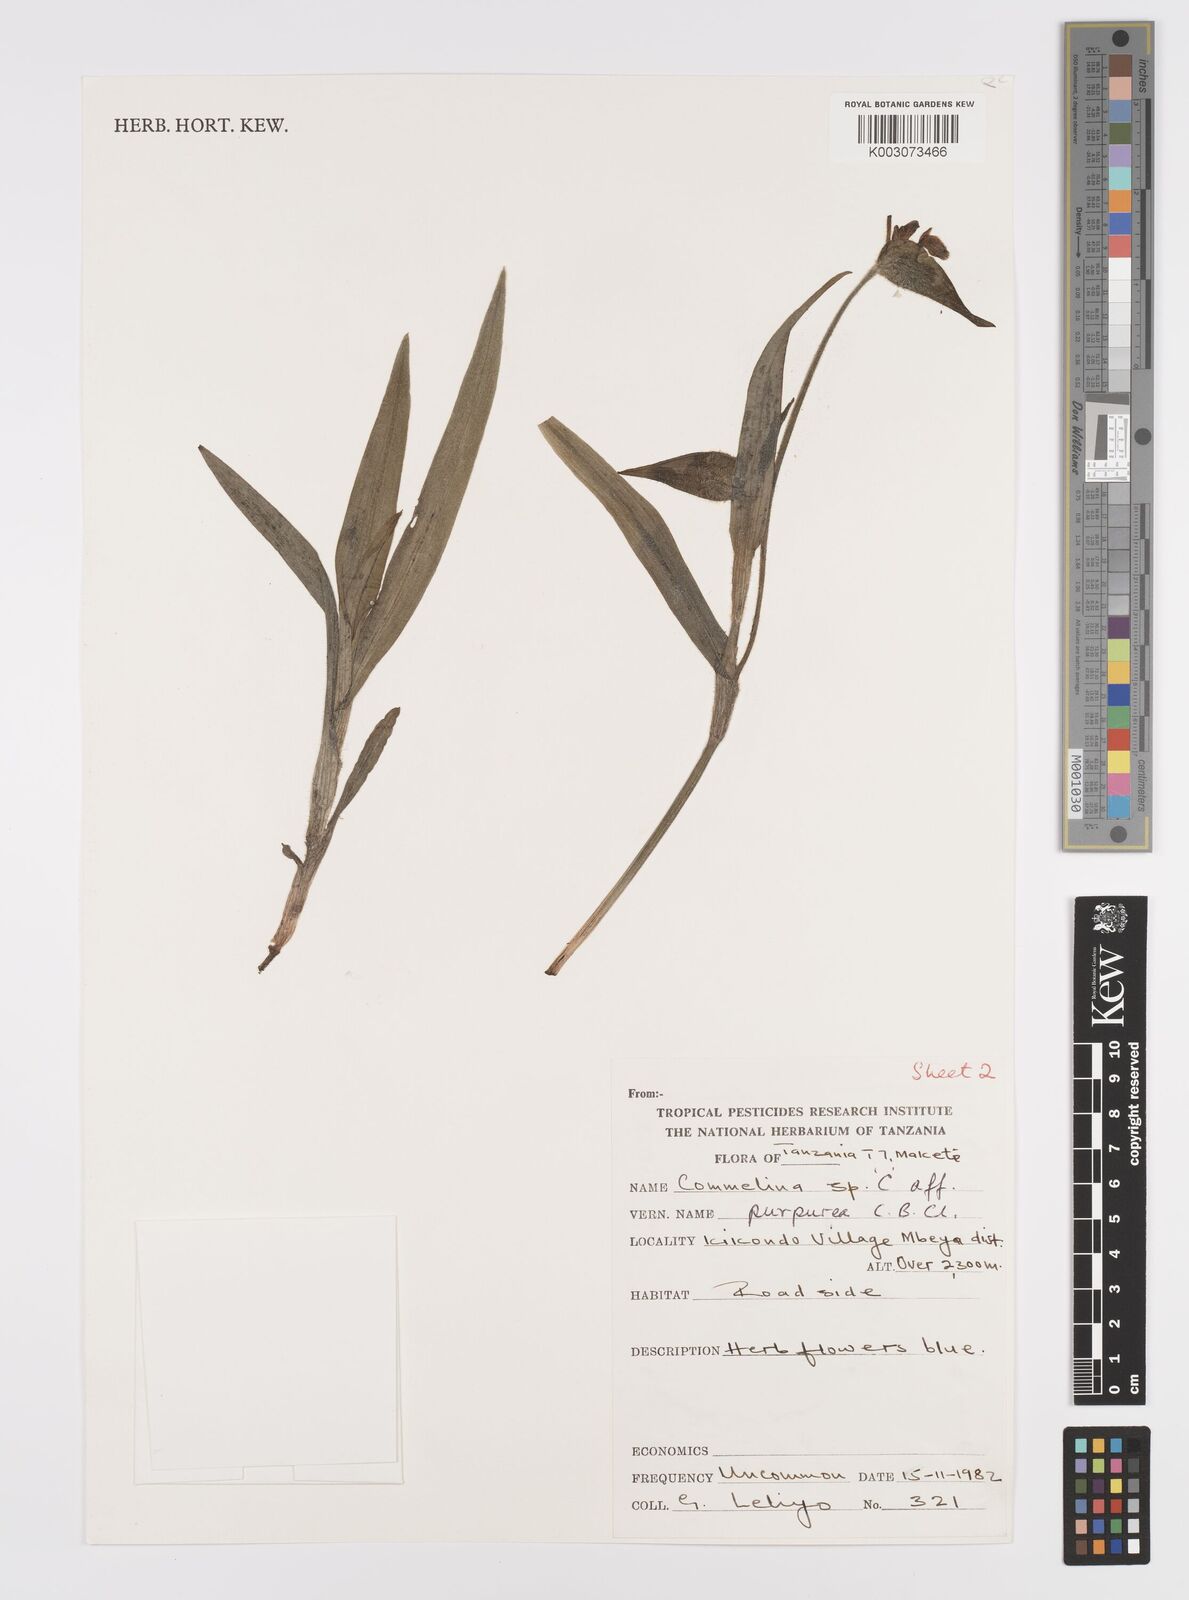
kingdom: Plantae
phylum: Tracheophyta
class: Liliopsida
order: Commelinales
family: Commelinaceae
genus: Commelina
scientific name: Commelina kituloensis
